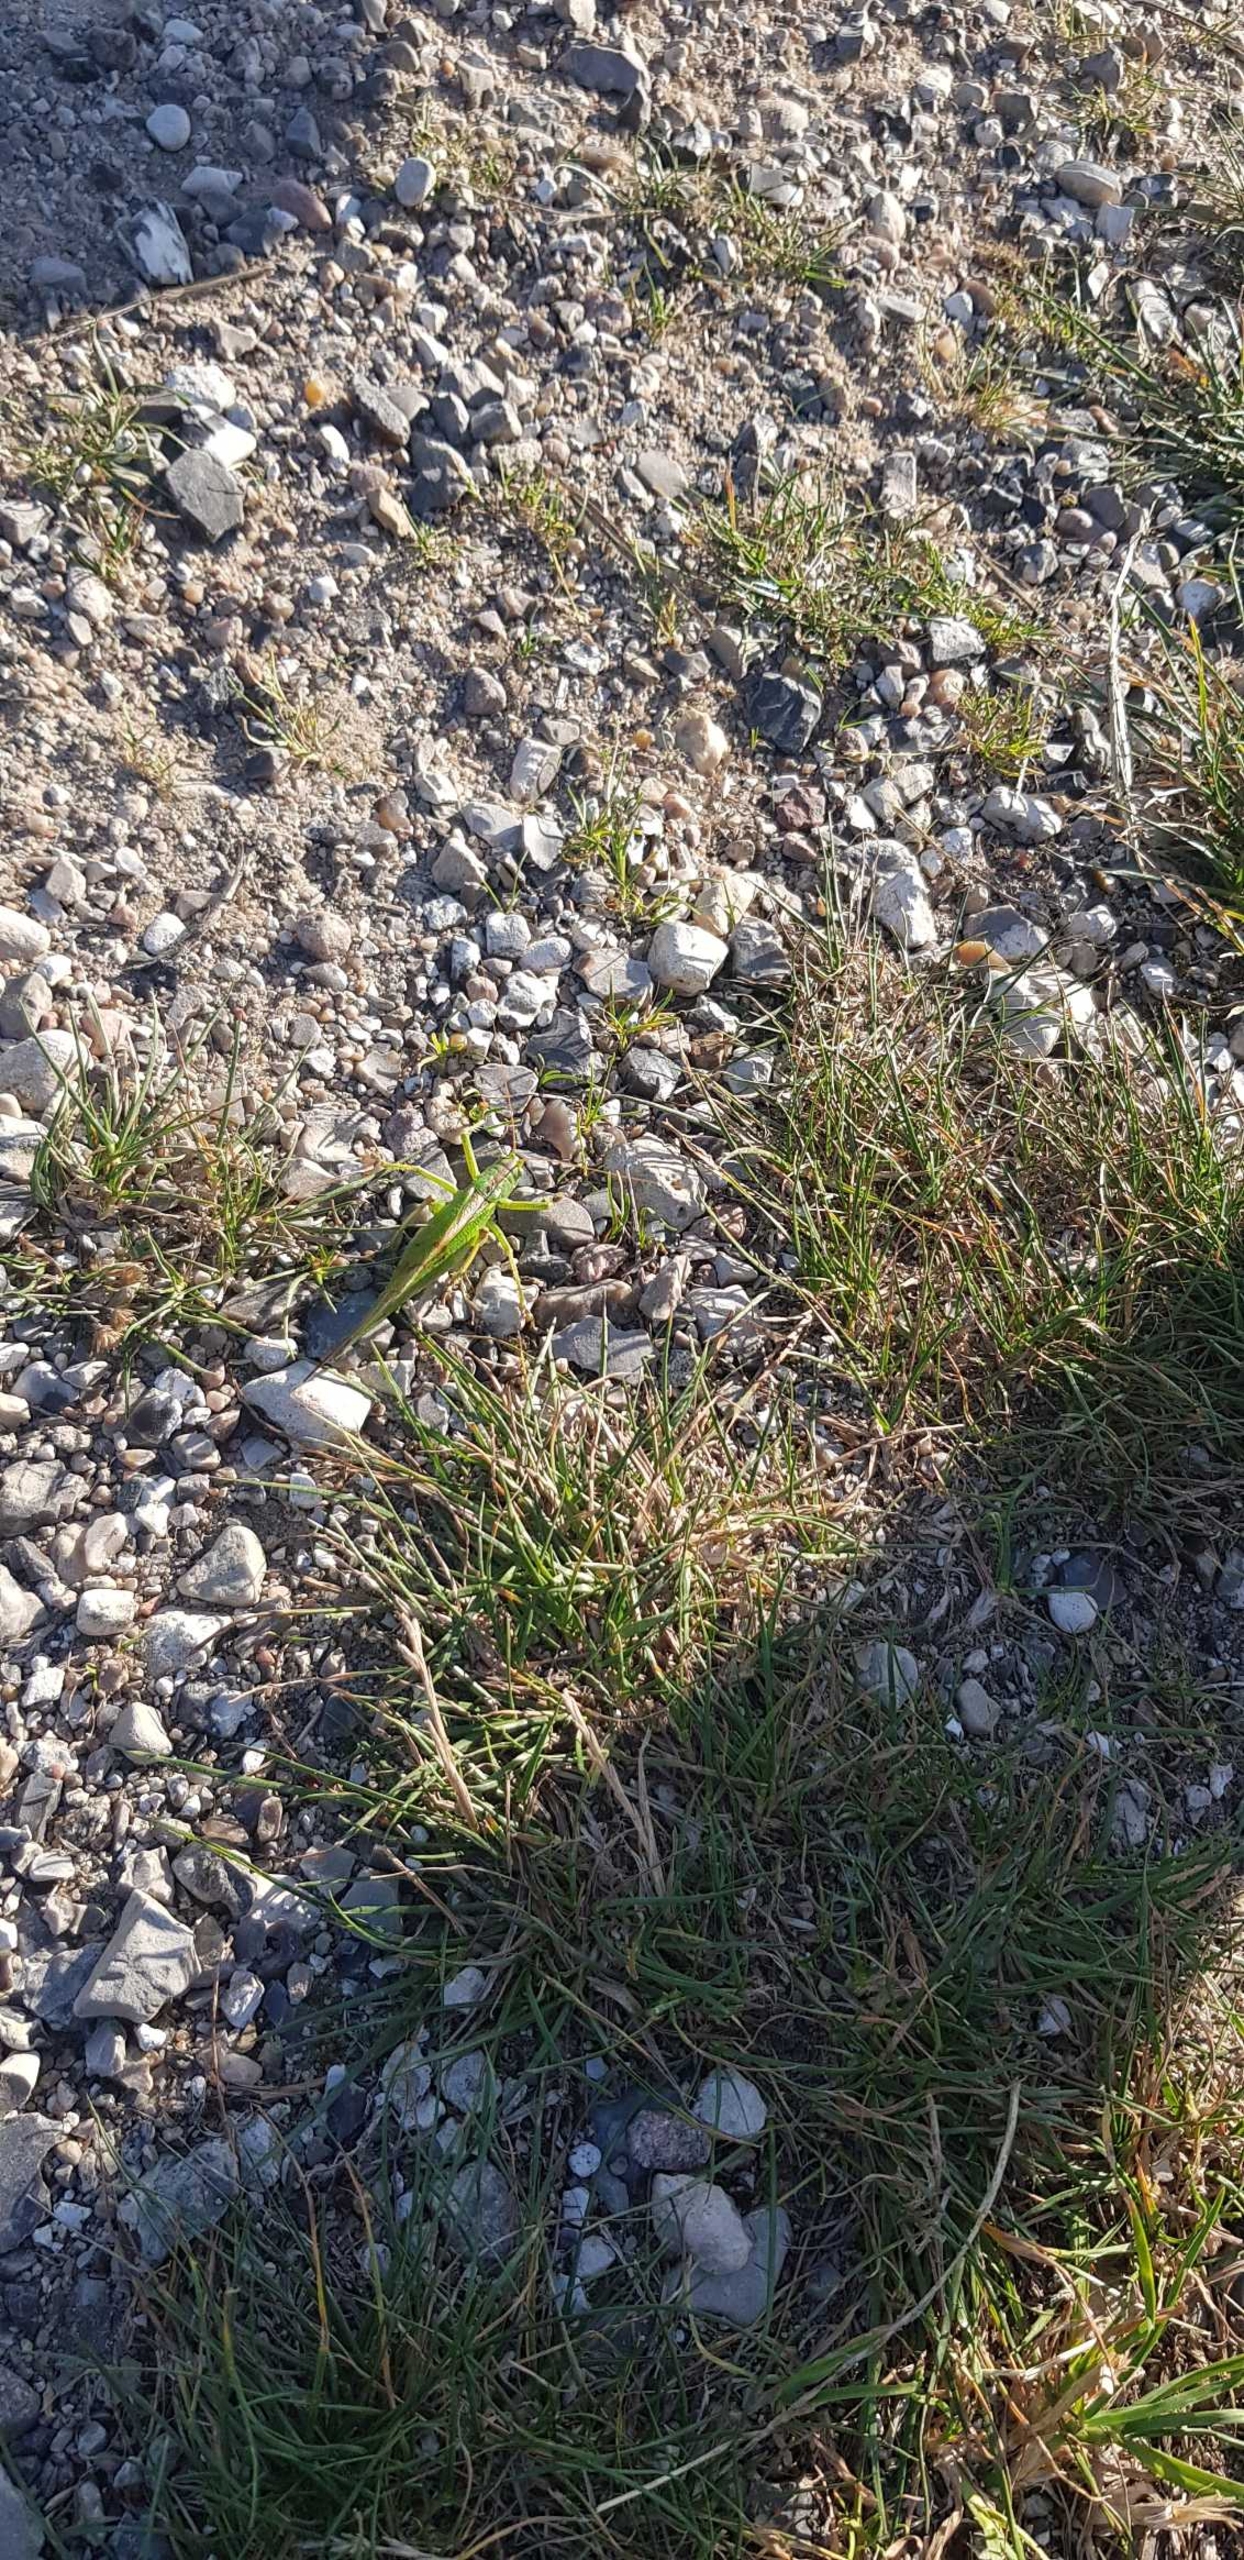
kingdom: Animalia
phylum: Arthropoda
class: Insecta
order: Orthoptera
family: Tettigoniidae
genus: Tettigonia
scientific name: Tettigonia viridissima
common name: Stor grøn løvgræshoppe
